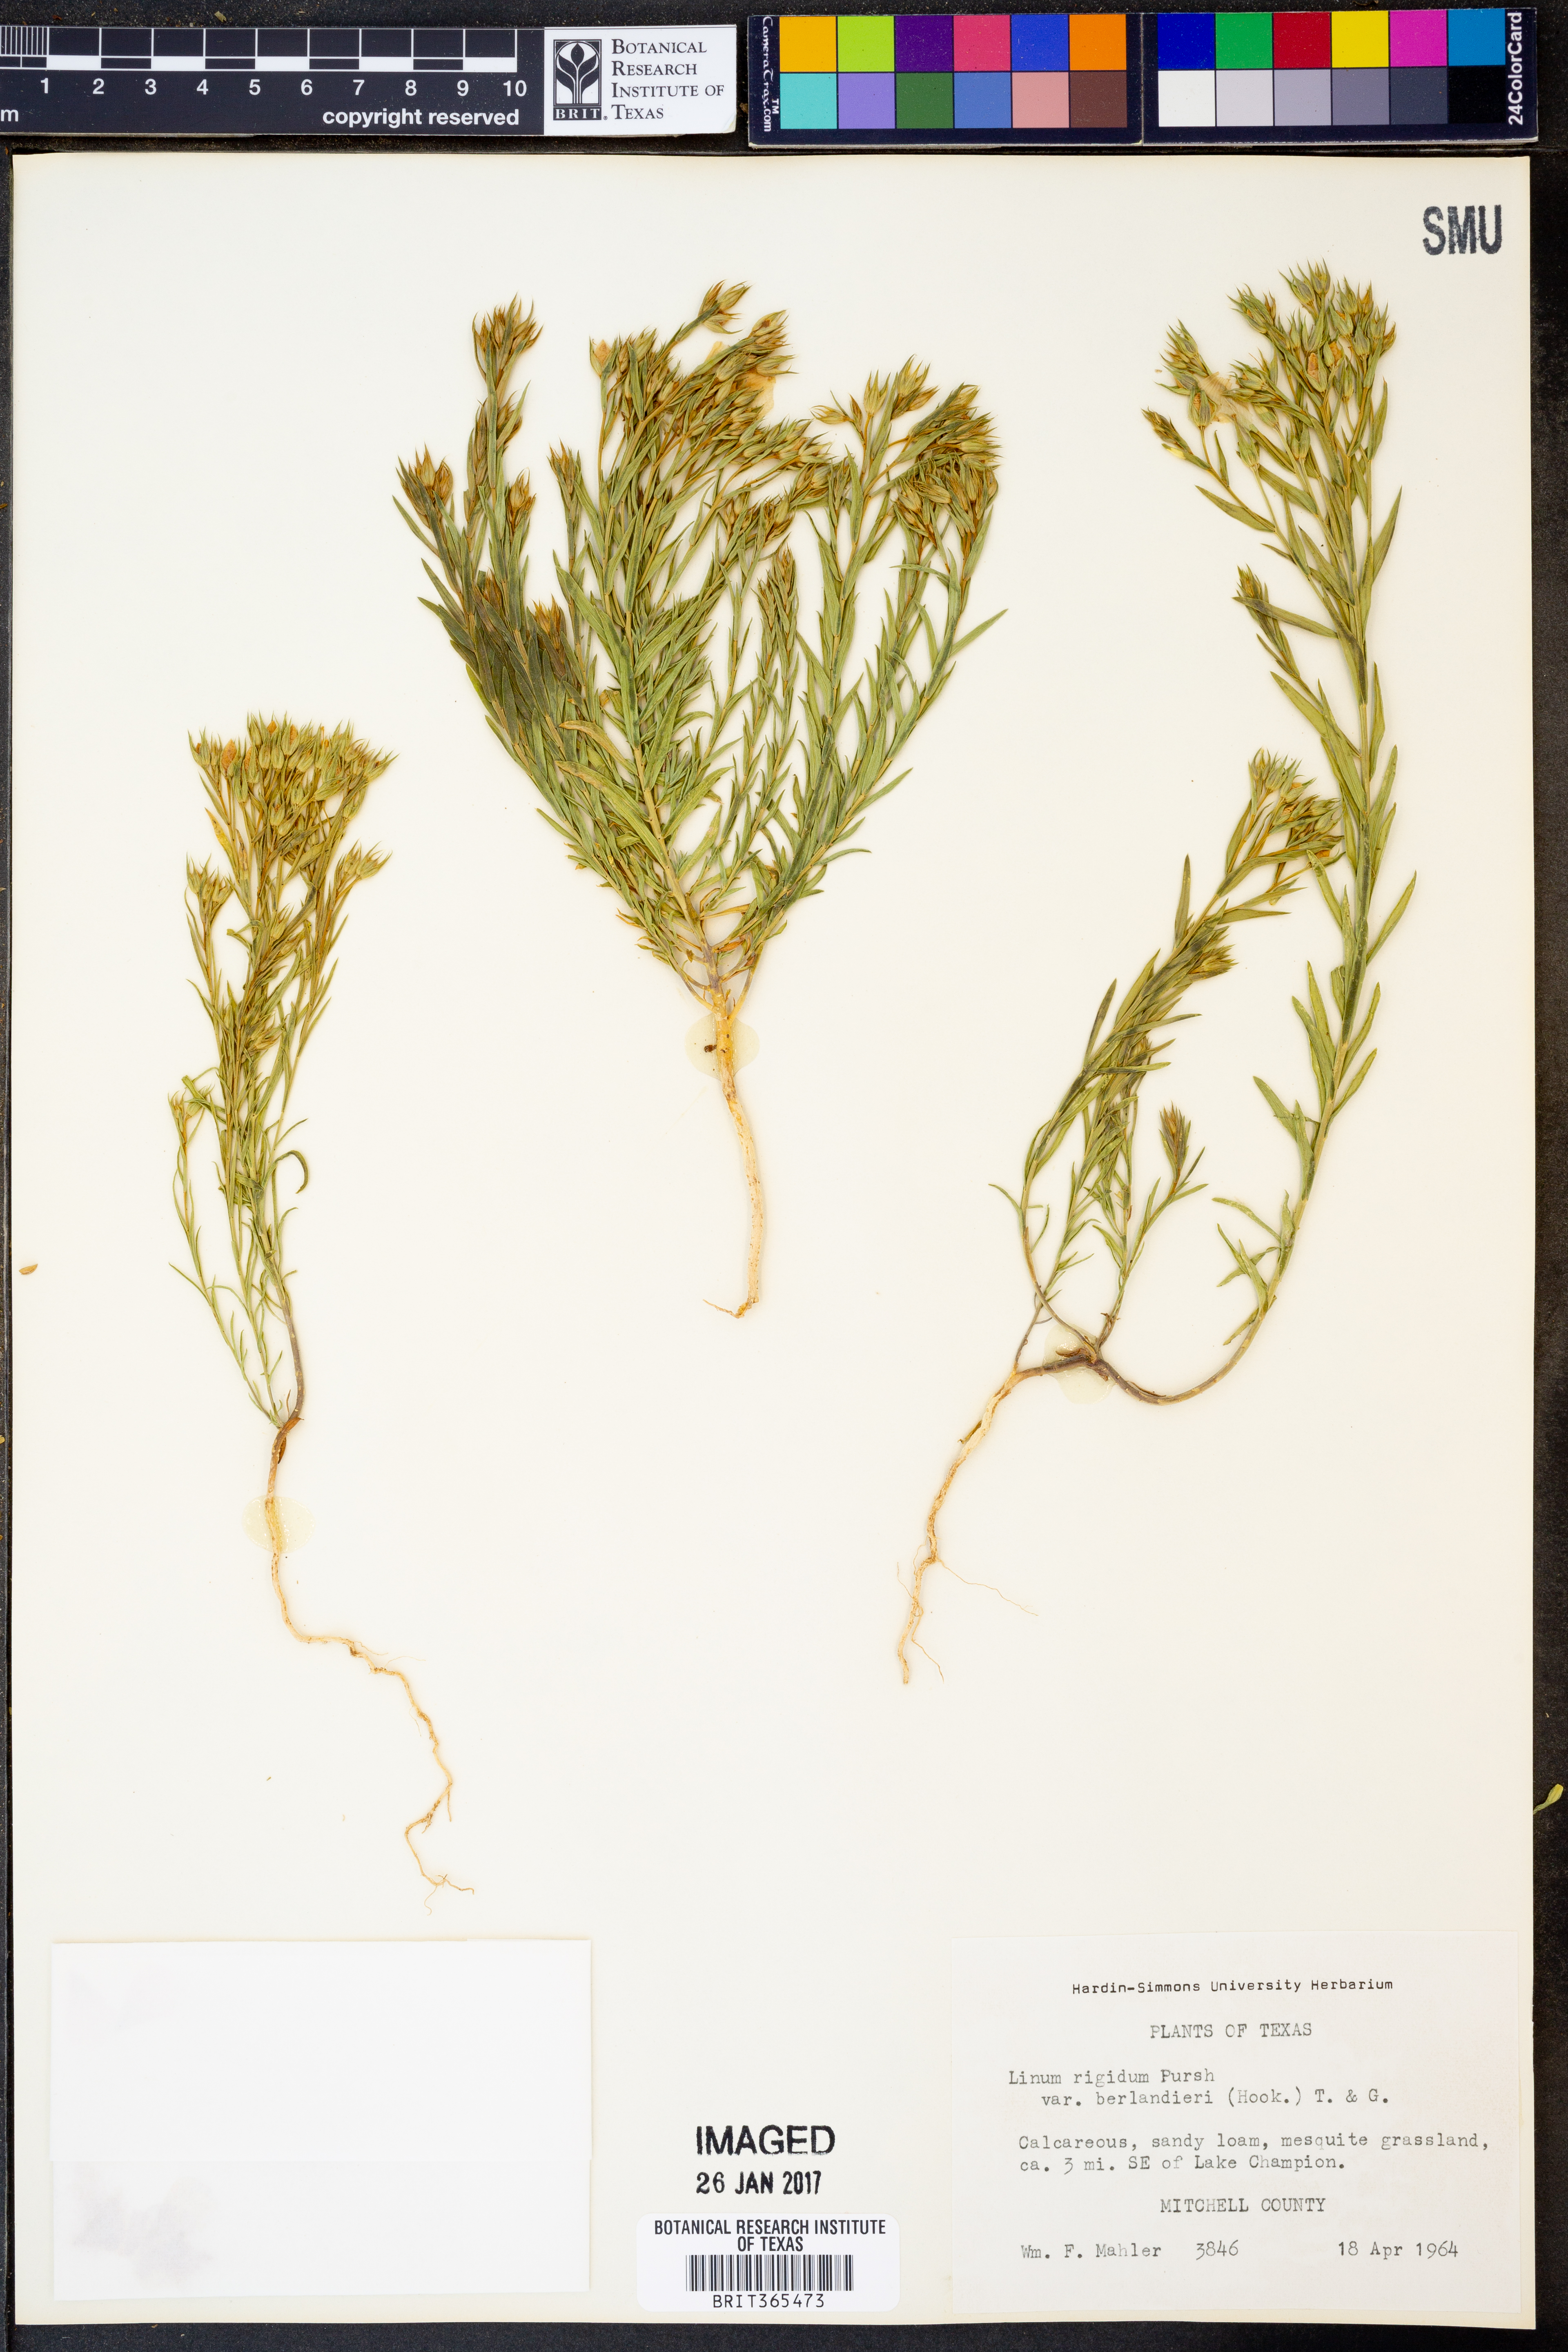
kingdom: Plantae
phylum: Tracheophyta
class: Magnoliopsida
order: Malpighiales
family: Linaceae
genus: Linum
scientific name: Linum berlandieri
